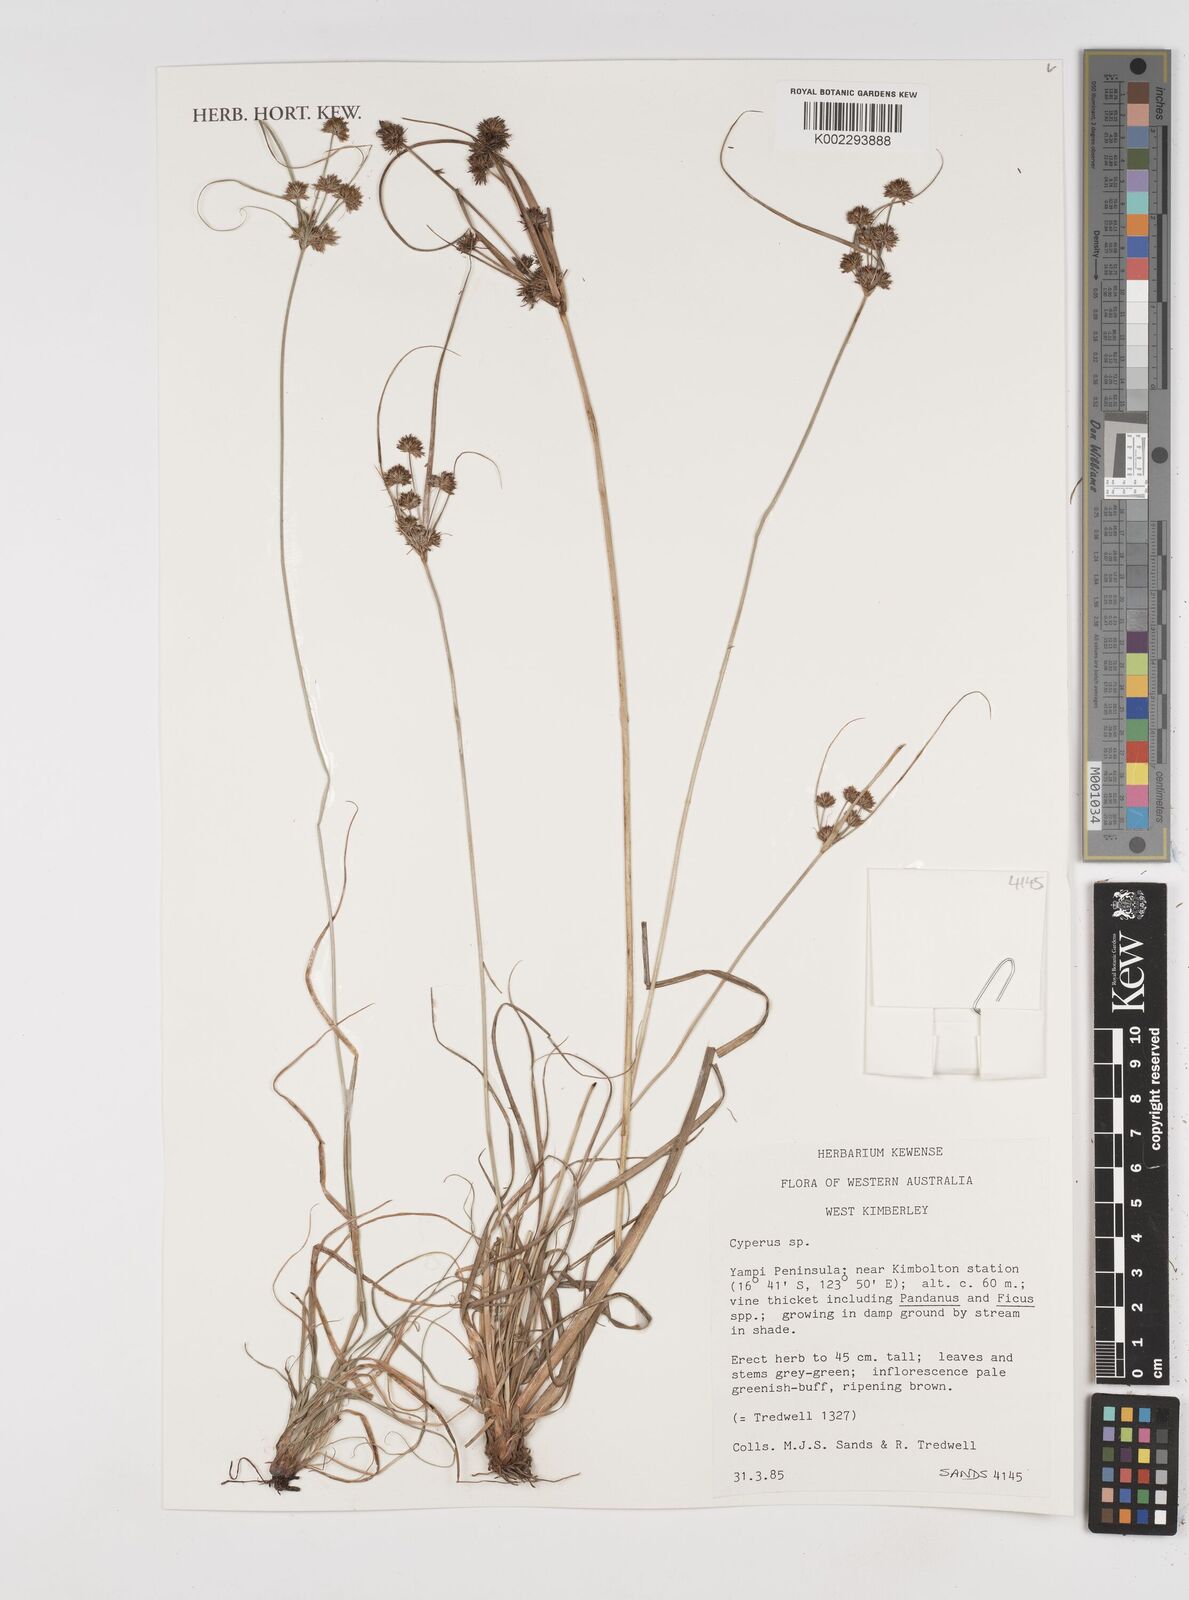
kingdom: Plantae
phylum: Tracheophyta
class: Liliopsida
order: Poales
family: Cyperaceae
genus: Cyperus
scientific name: Cyperus
